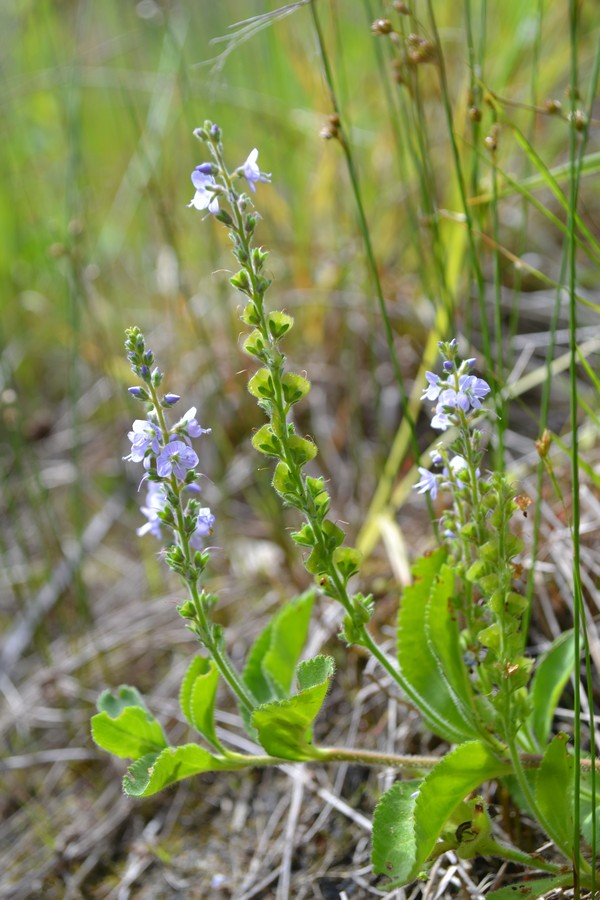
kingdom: Plantae
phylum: Tracheophyta
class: Magnoliopsida
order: Lamiales
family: Plantaginaceae
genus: Veronica
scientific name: Veronica officinalis
